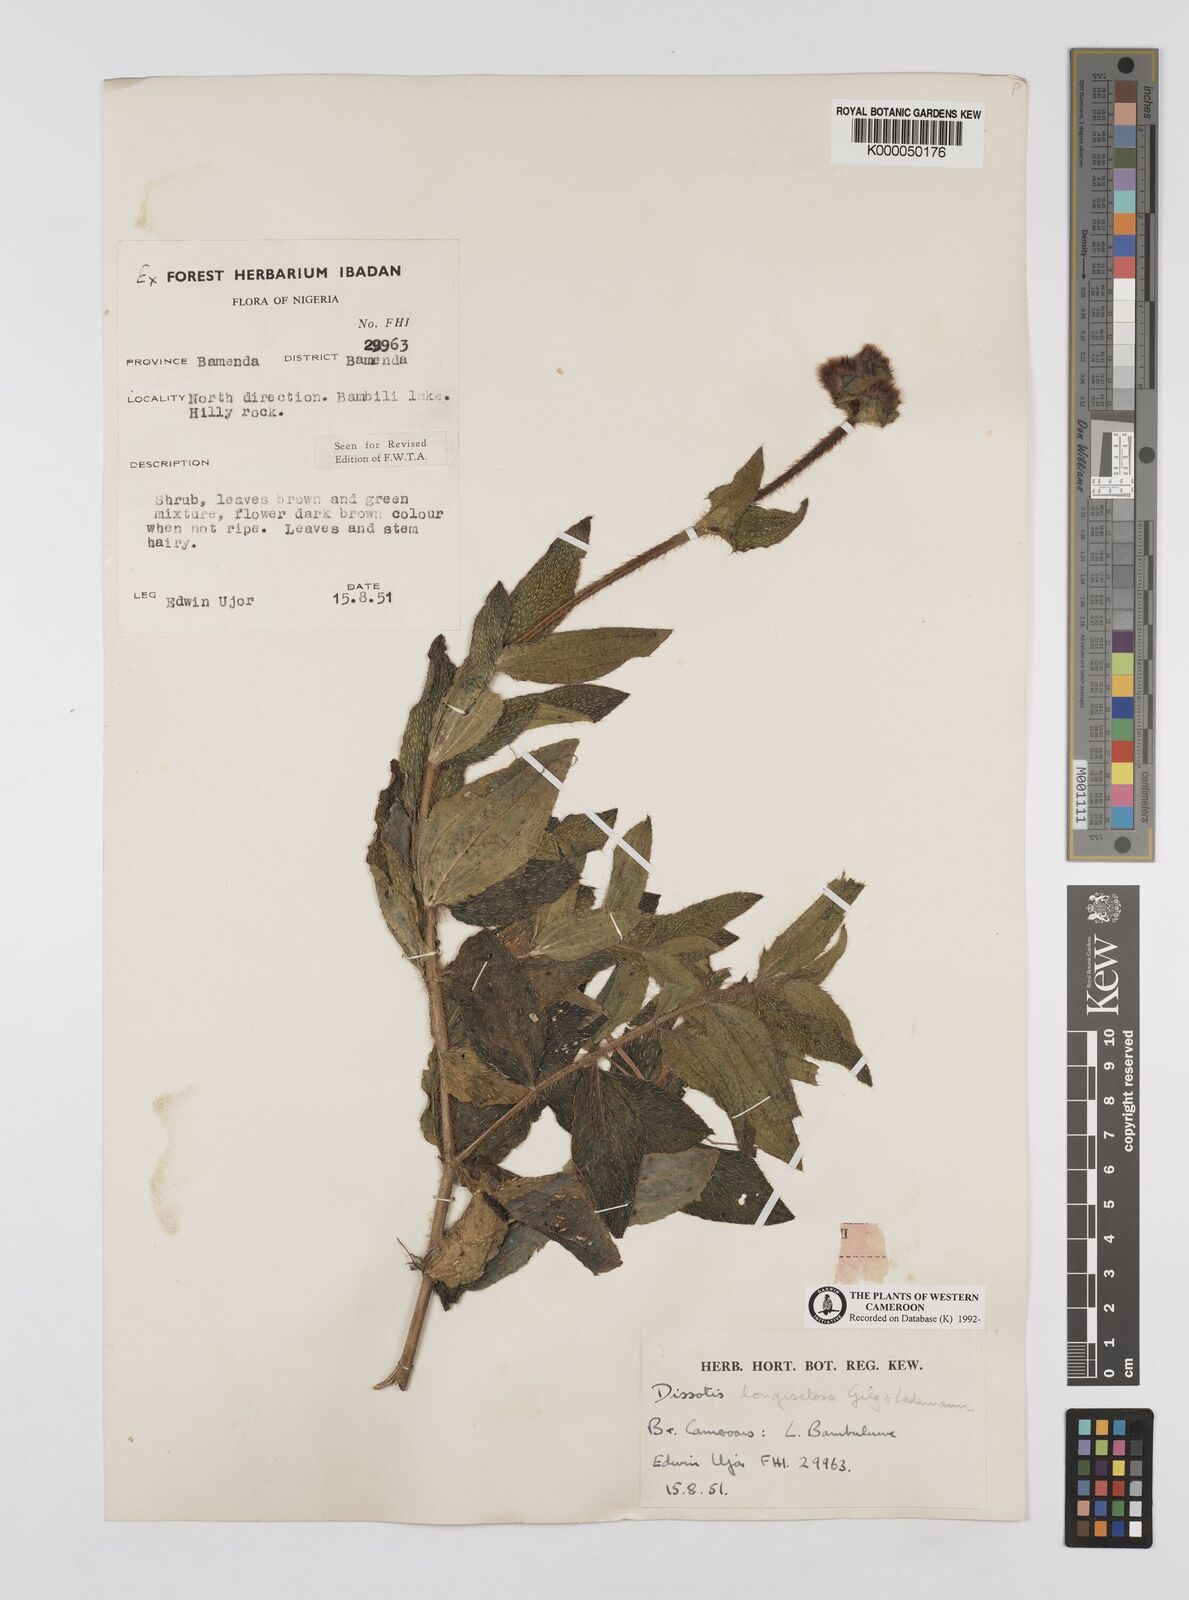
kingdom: Plantae
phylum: Tracheophyta
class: Magnoliopsida
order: Myrtales
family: Melastomataceae
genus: Dissotis
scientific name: Dissotis longisetosa
